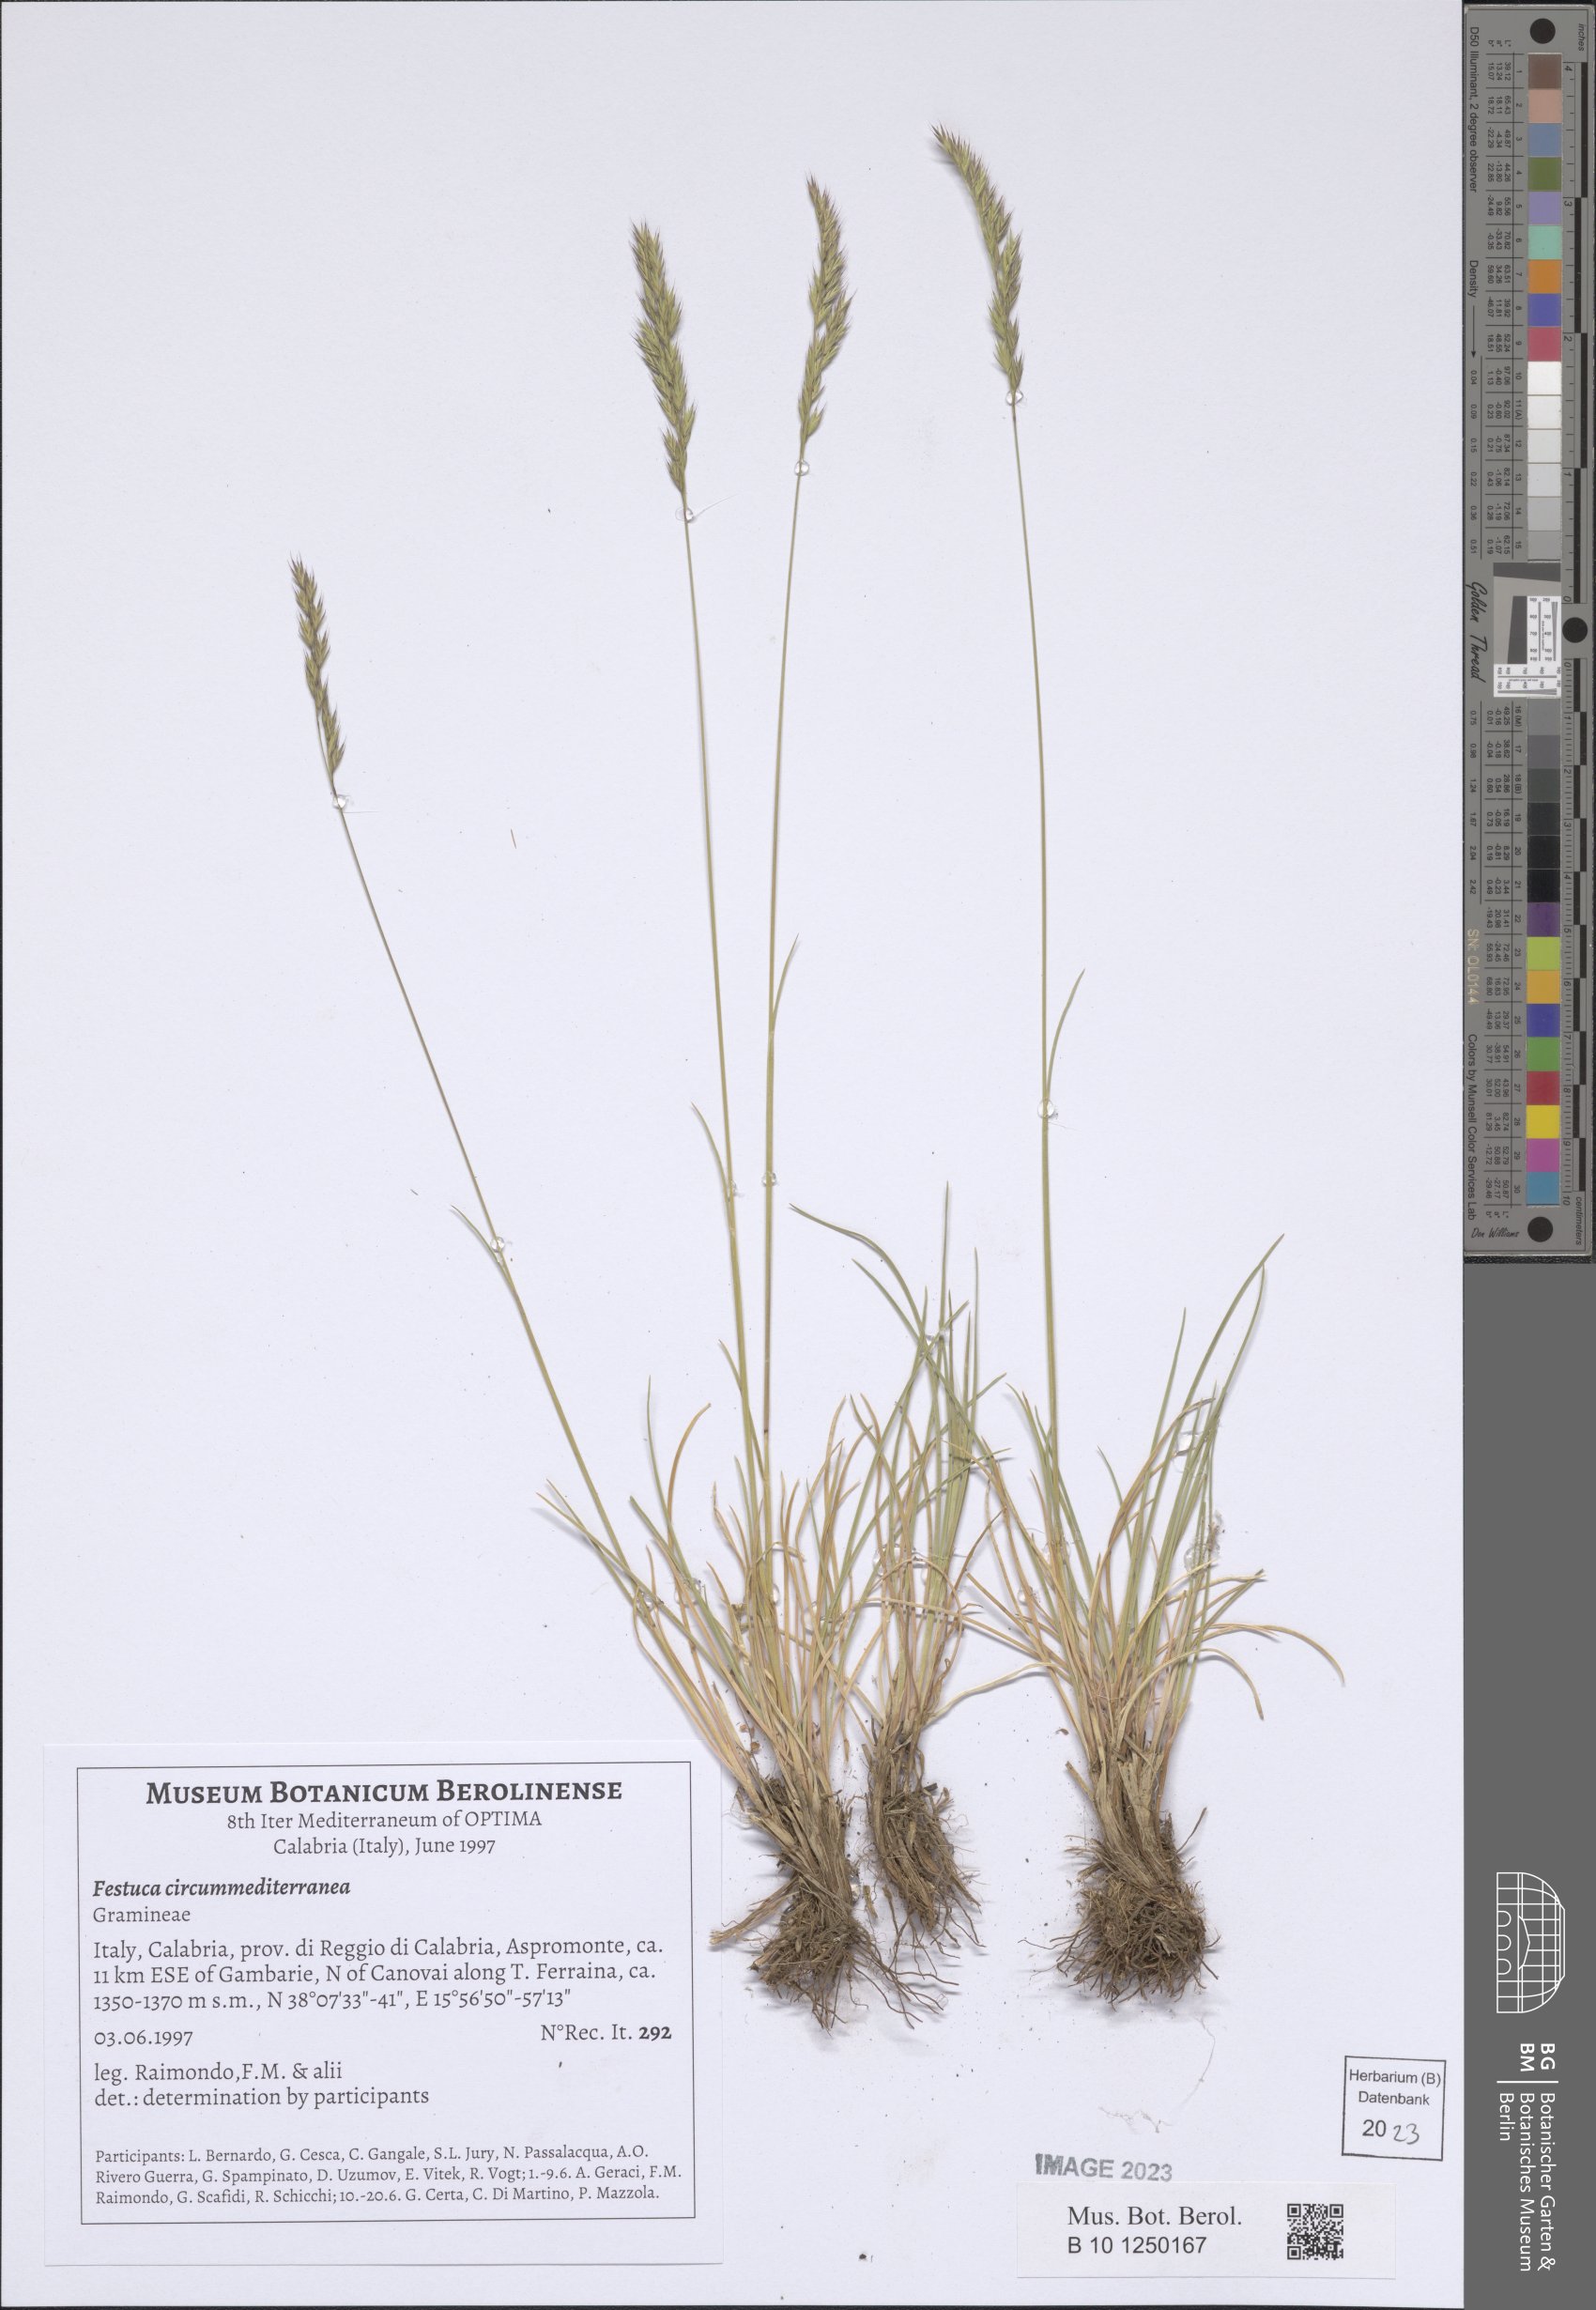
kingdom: Plantae
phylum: Tracheophyta
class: Liliopsida
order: Poales
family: Poaceae
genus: Festuca
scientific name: Festuca circummediterranea
